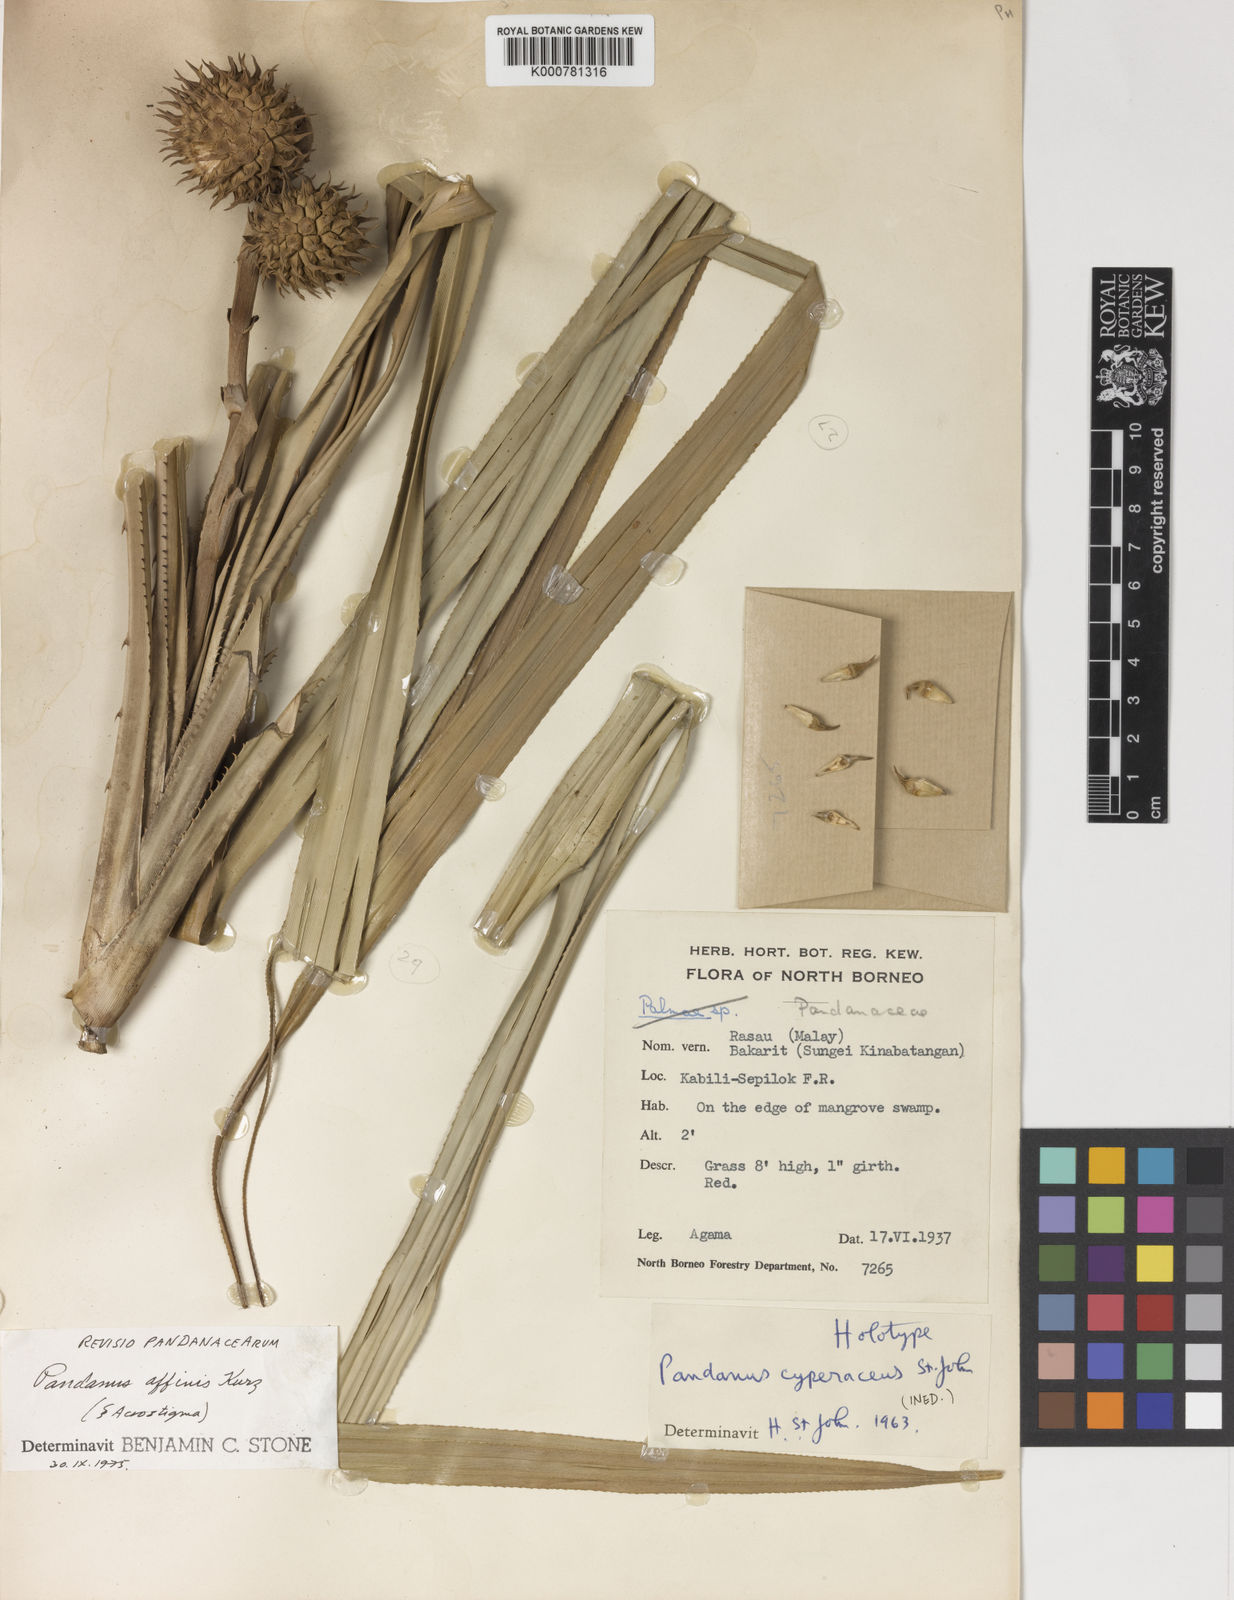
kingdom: Plantae
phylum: Tracheophyta
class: Liliopsida
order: Pandanales
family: Pandanaceae
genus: Benstonea
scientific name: Benstonea affinis
